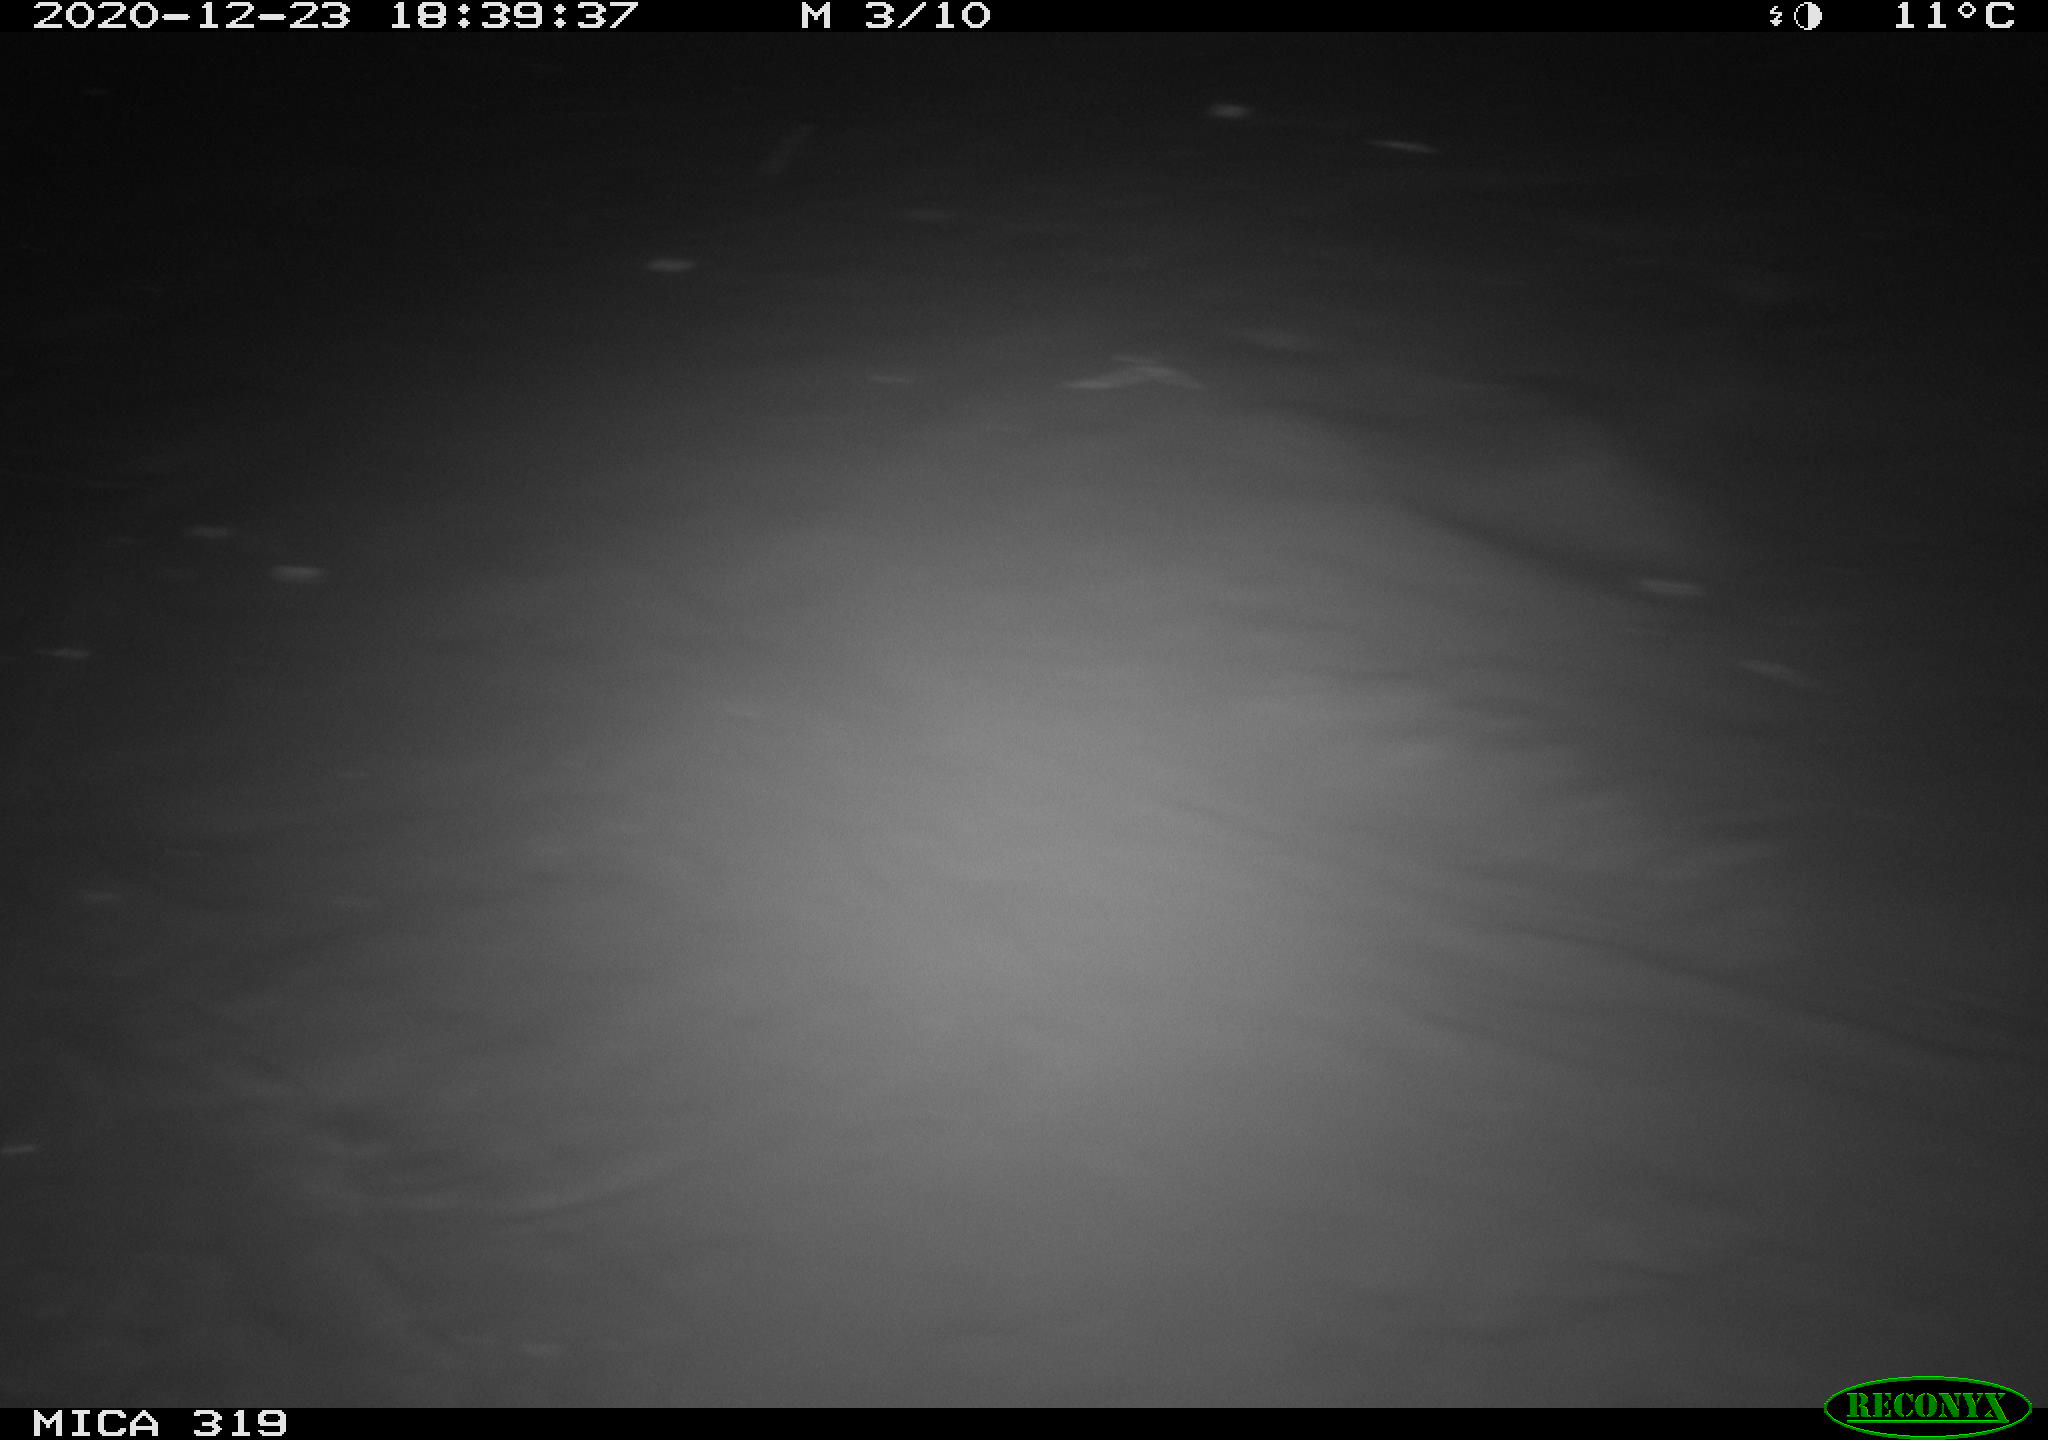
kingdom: Animalia
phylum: Chordata
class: Mammalia
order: Carnivora
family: Mustelidae
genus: Mustela
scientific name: Mustela putorius
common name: European polecat
